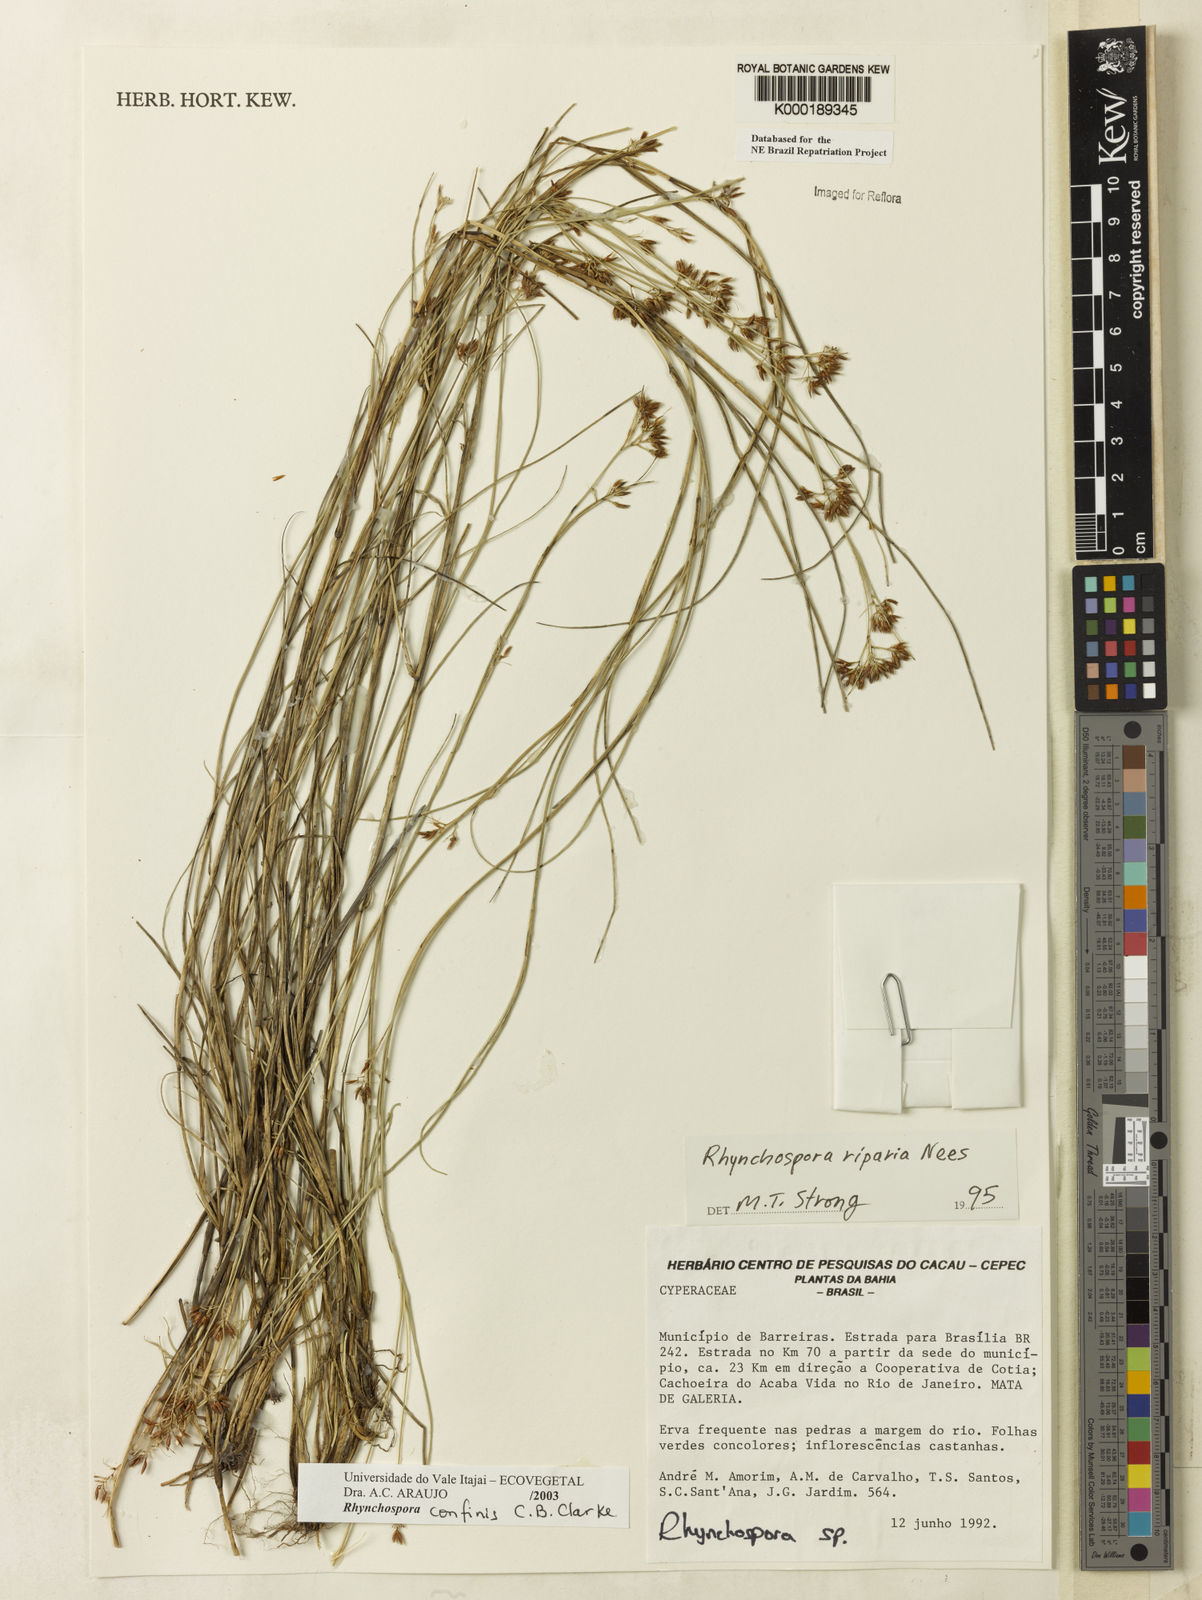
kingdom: Plantae
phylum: Tracheophyta
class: Liliopsida
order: Poales
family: Cyperaceae
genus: Rhynchospora
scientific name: Rhynchospora confinis
